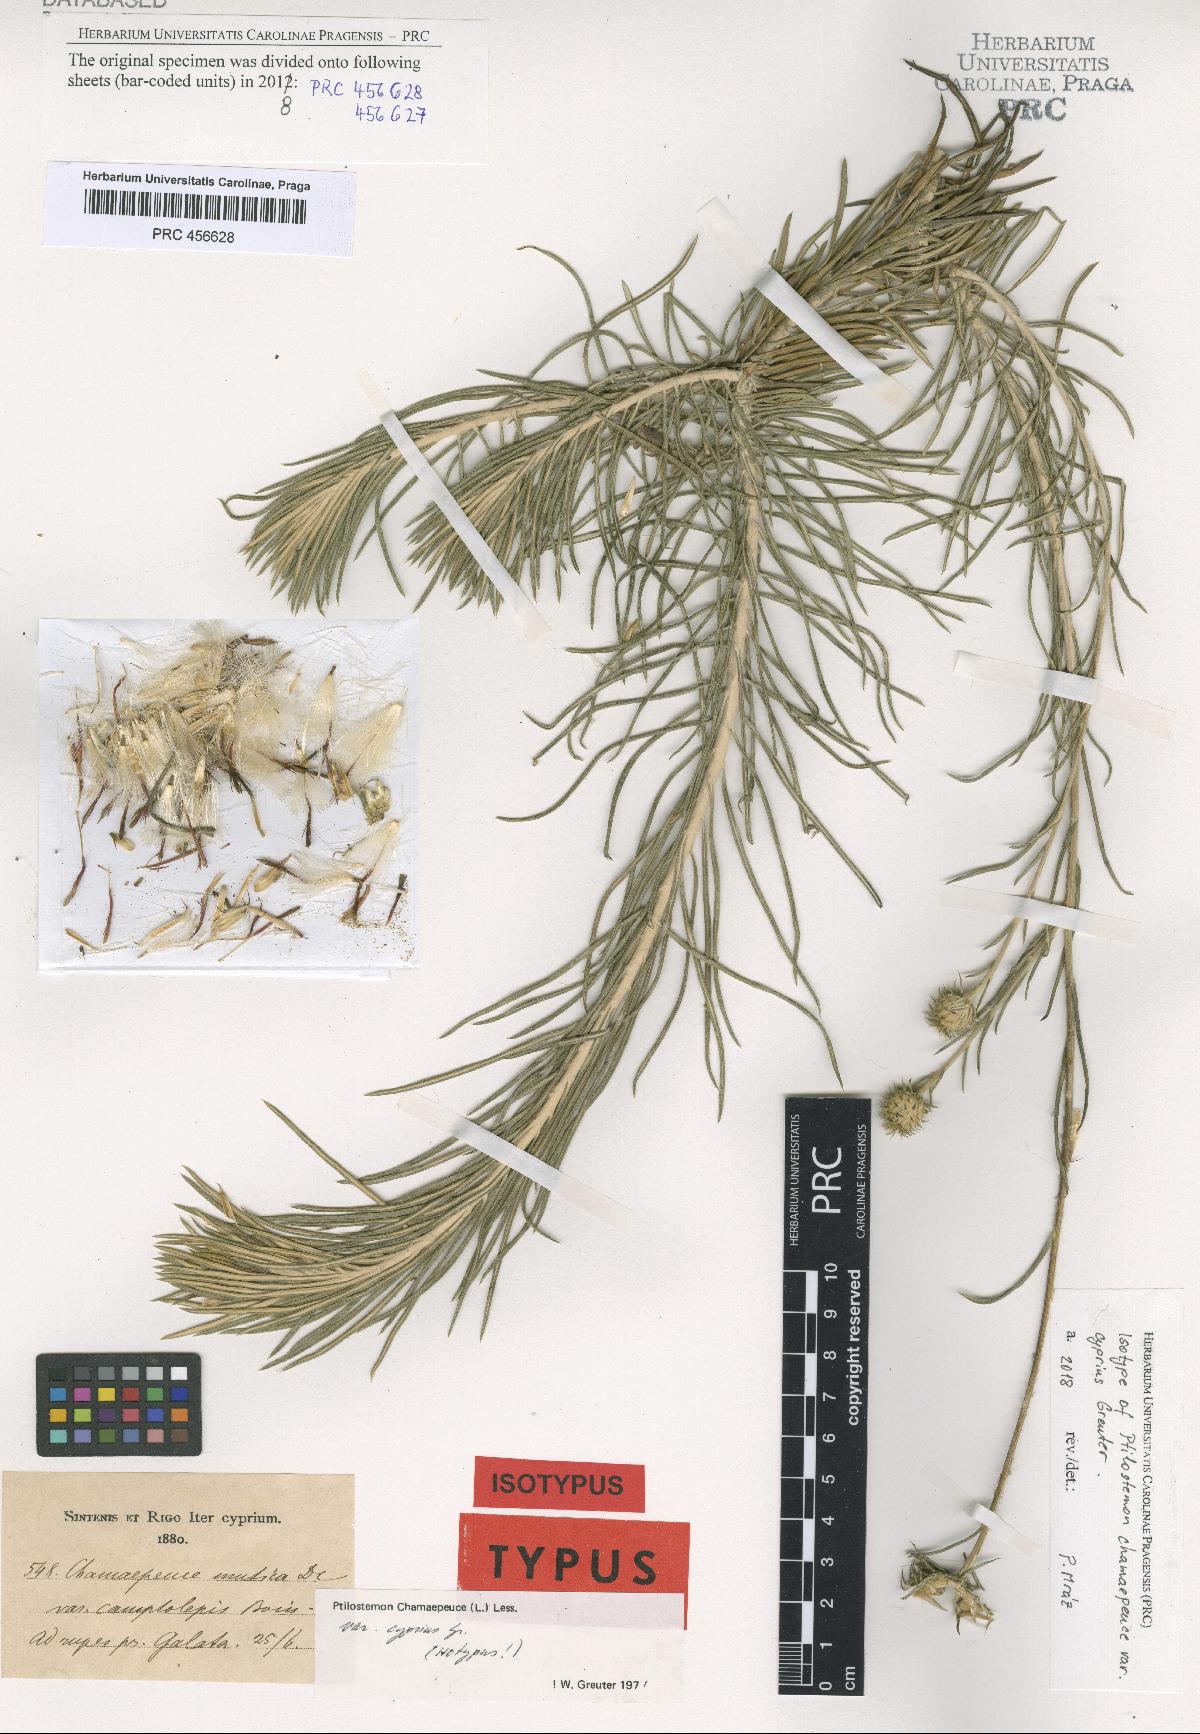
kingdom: Plantae
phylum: Tracheophyta
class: Magnoliopsida
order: Asterales
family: Asteraceae
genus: Ptilostemon
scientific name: Ptilostemon chamaepeuce
